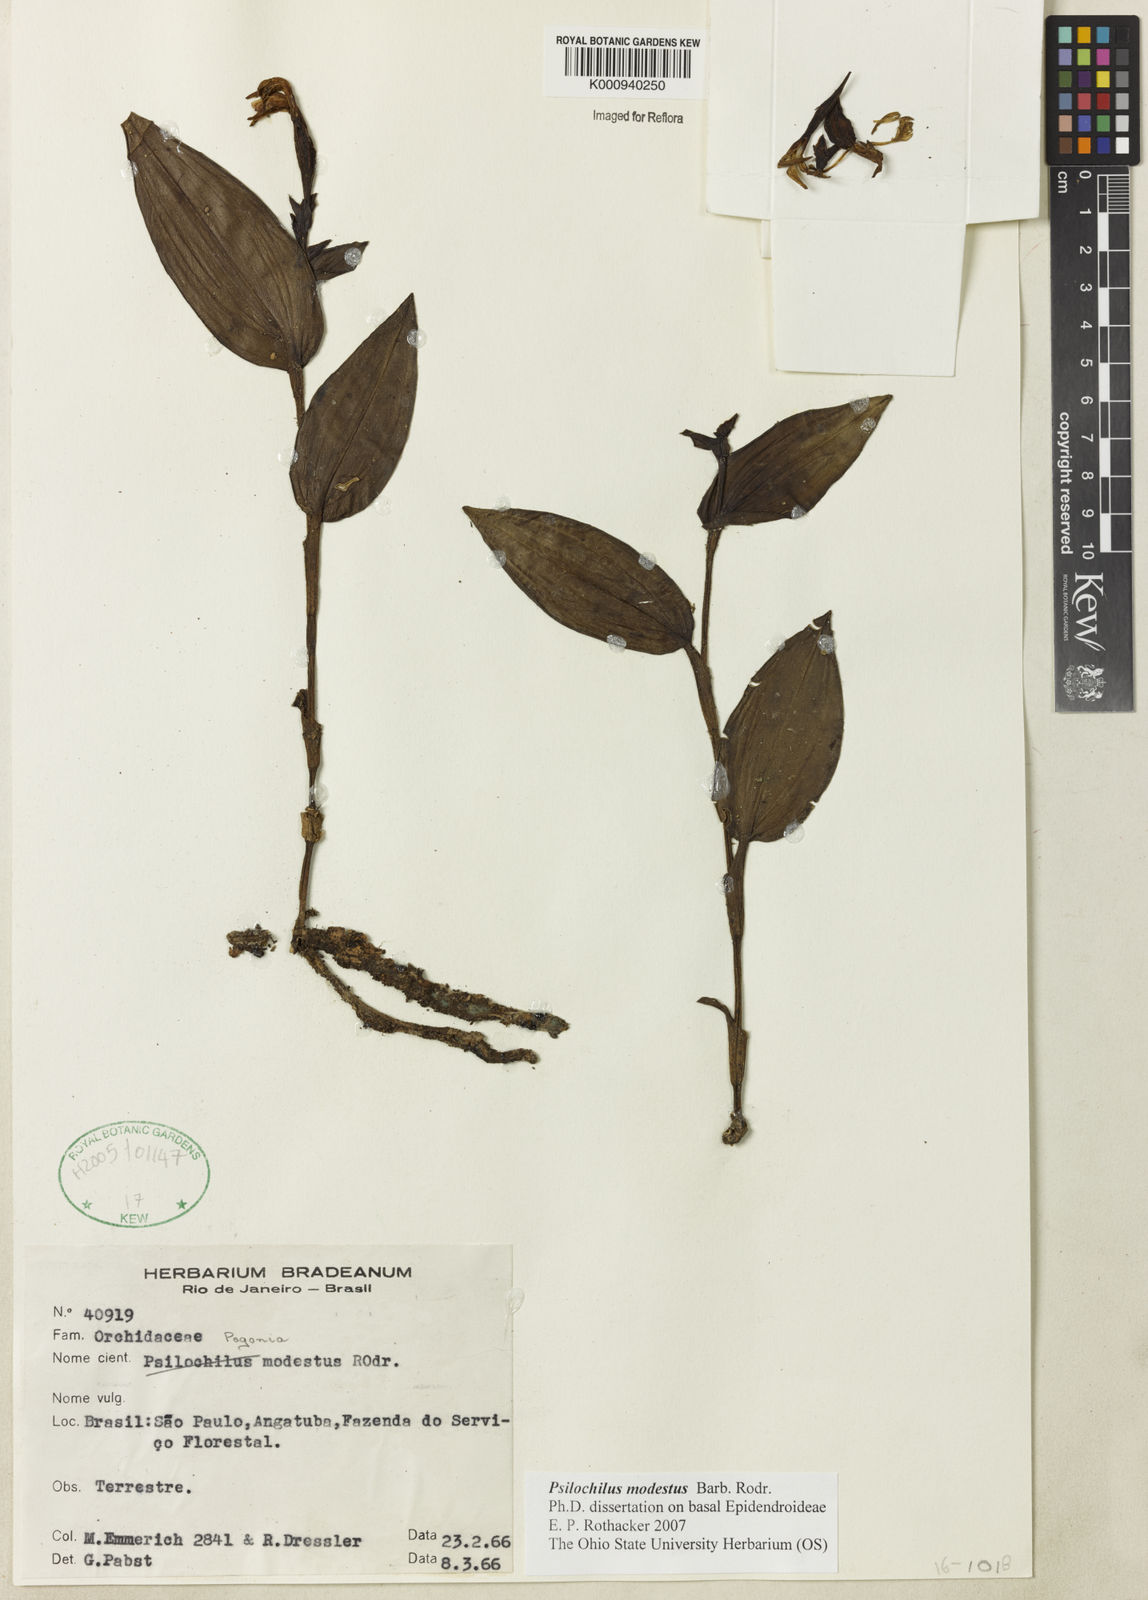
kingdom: Plantae
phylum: Tracheophyta
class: Liliopsida
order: Asparagales
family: Orchidaceae
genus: Psilochilus
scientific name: Psilochilus modestus
